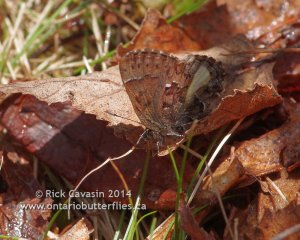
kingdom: Animalia
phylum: Arthropoda
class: Insecta
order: Lepidoptera
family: Lycaenidae
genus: Incisalia
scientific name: Incisalia lanoraieensis
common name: Bog Elfin
